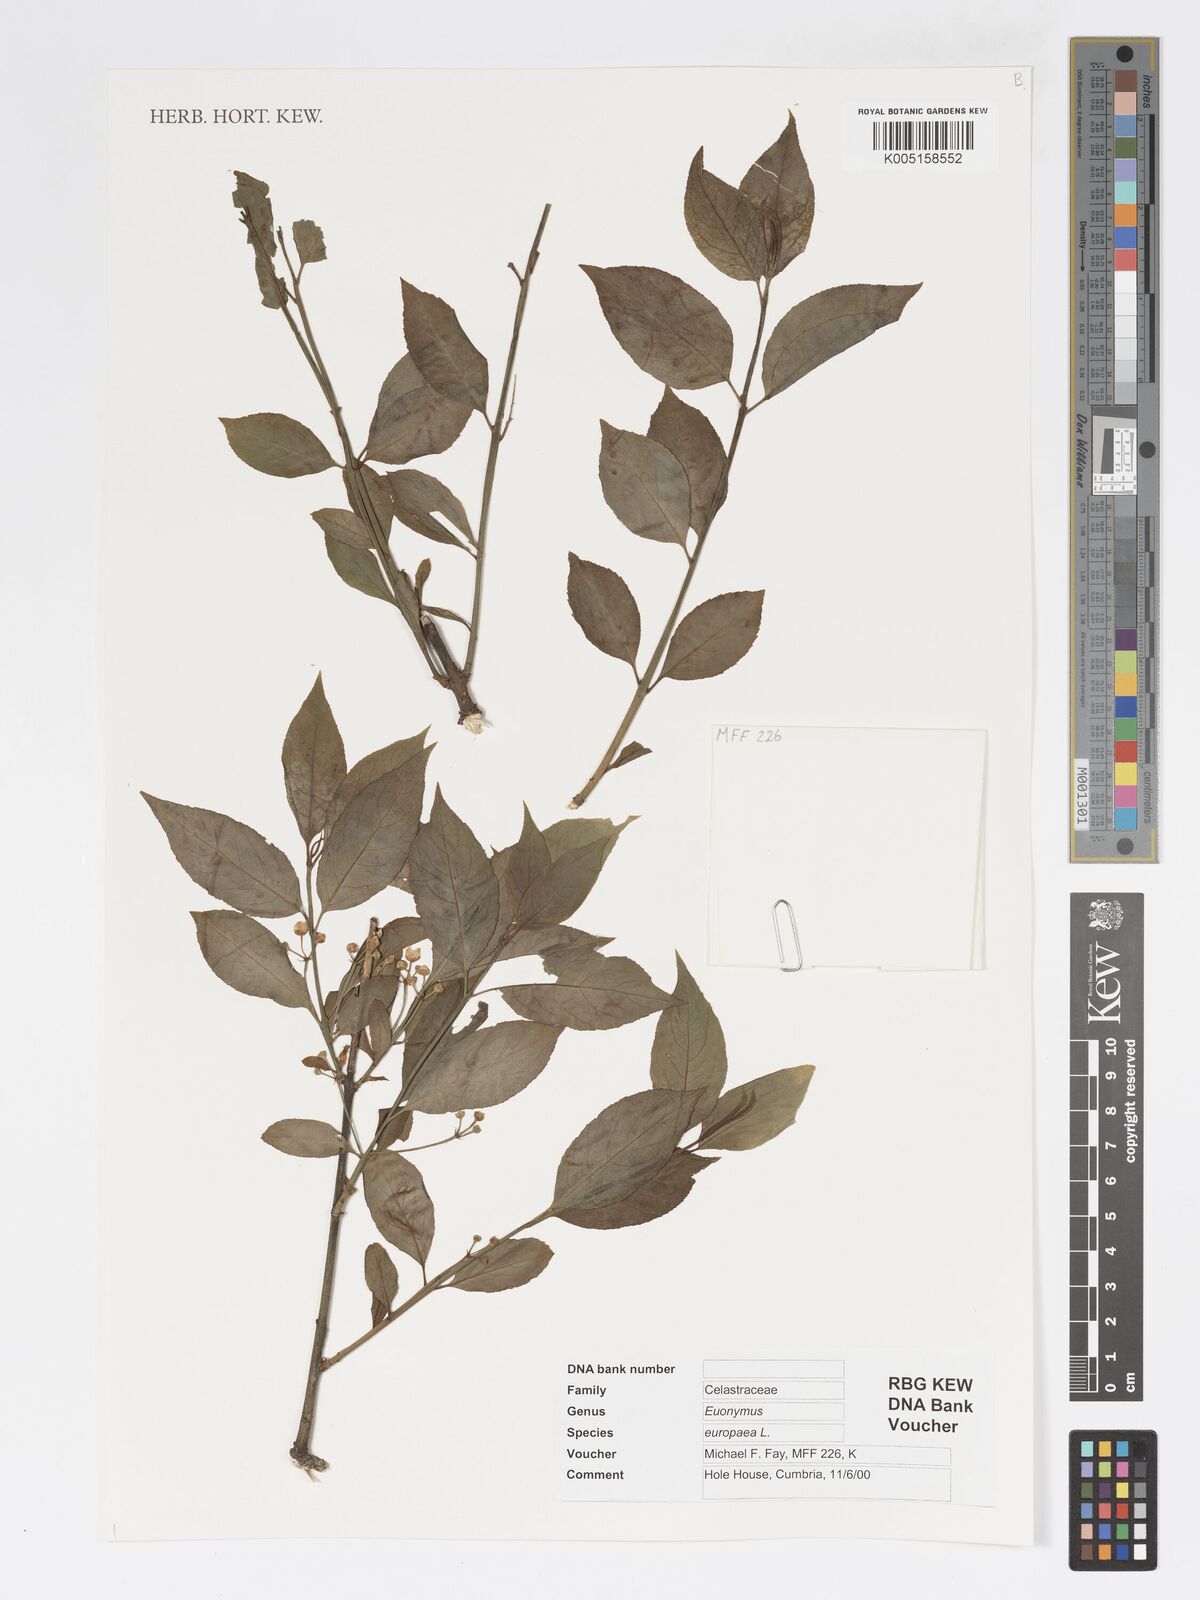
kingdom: Plantae
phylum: Tracheophyta
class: Magnoliopsida
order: Celastrales
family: Celastraceae
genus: Euonymus
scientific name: Euonymus europaeus
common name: Spindle
